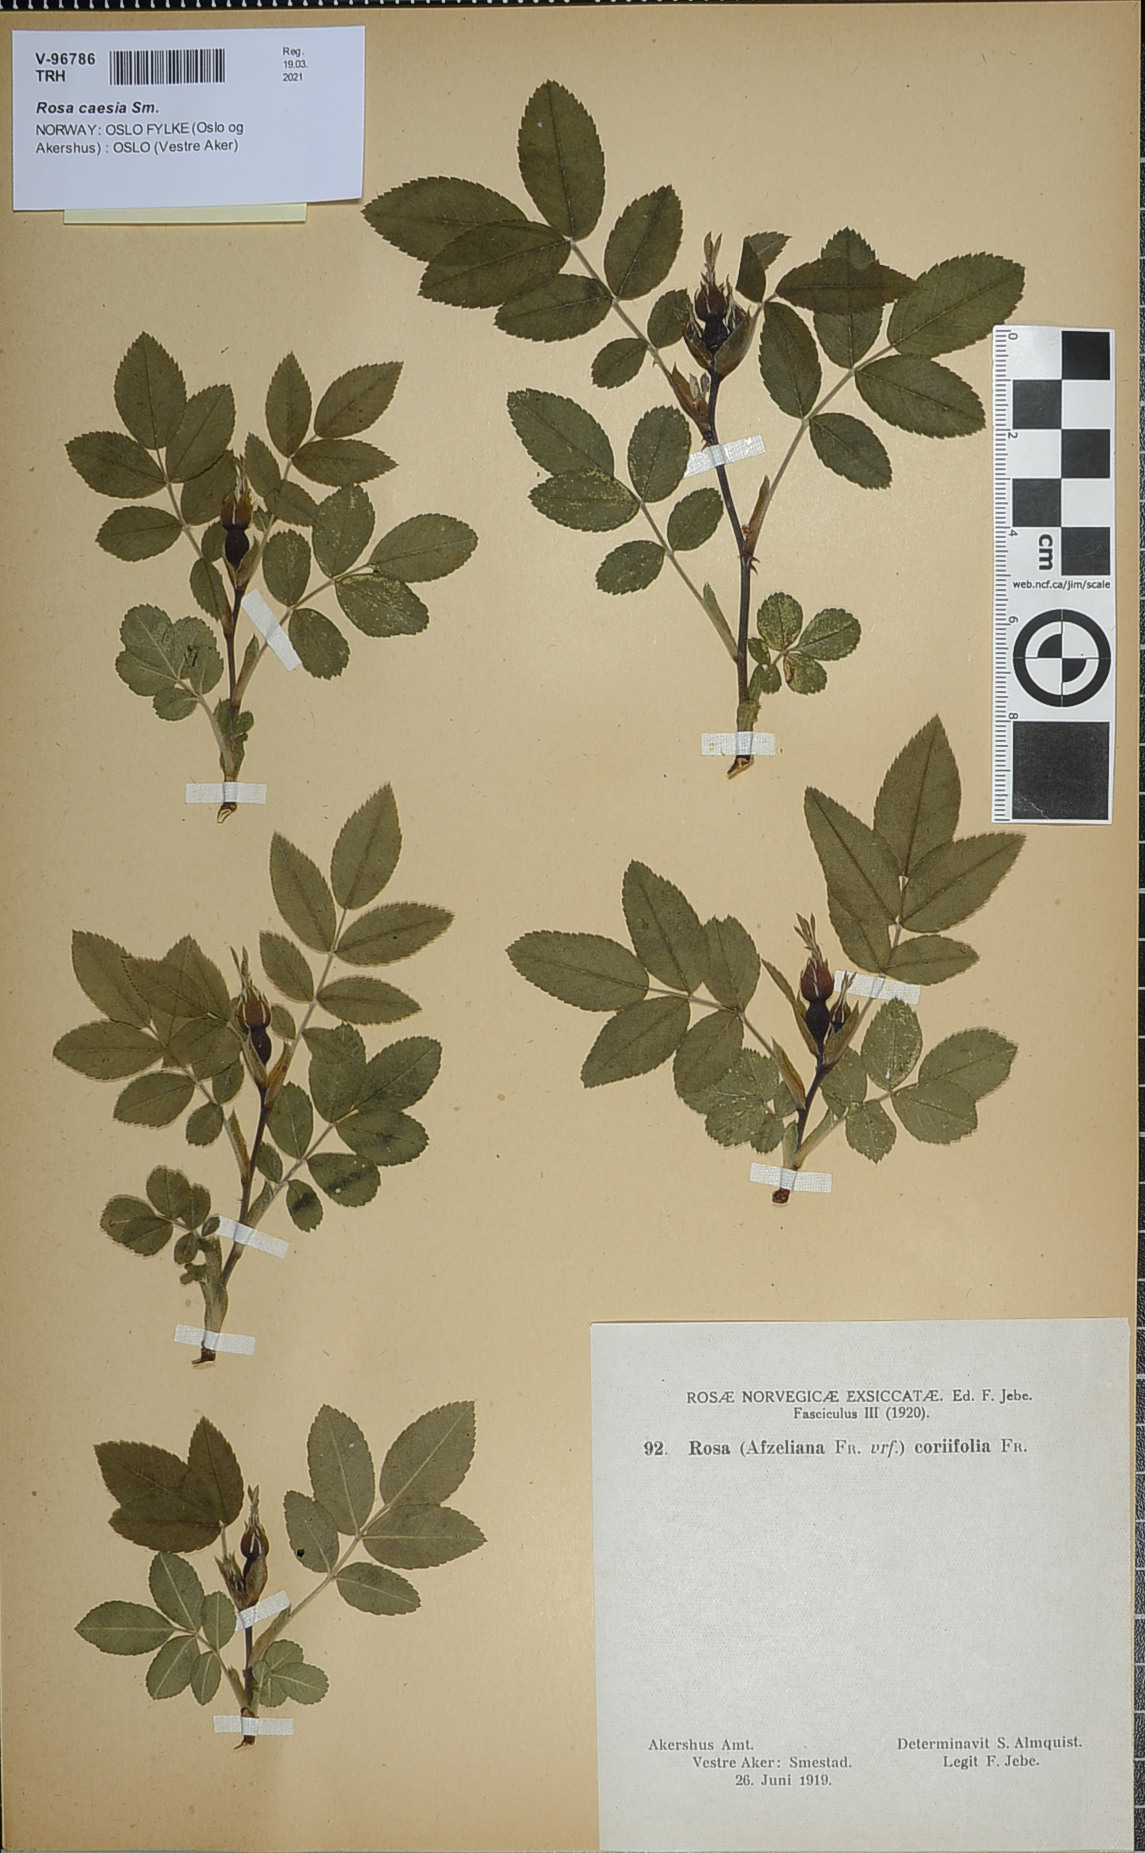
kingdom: Plantae
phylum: Tracheophyta
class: Magnoliopsida
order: Rosales
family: Rosaceae
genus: Rosa
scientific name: Rosa caesia
